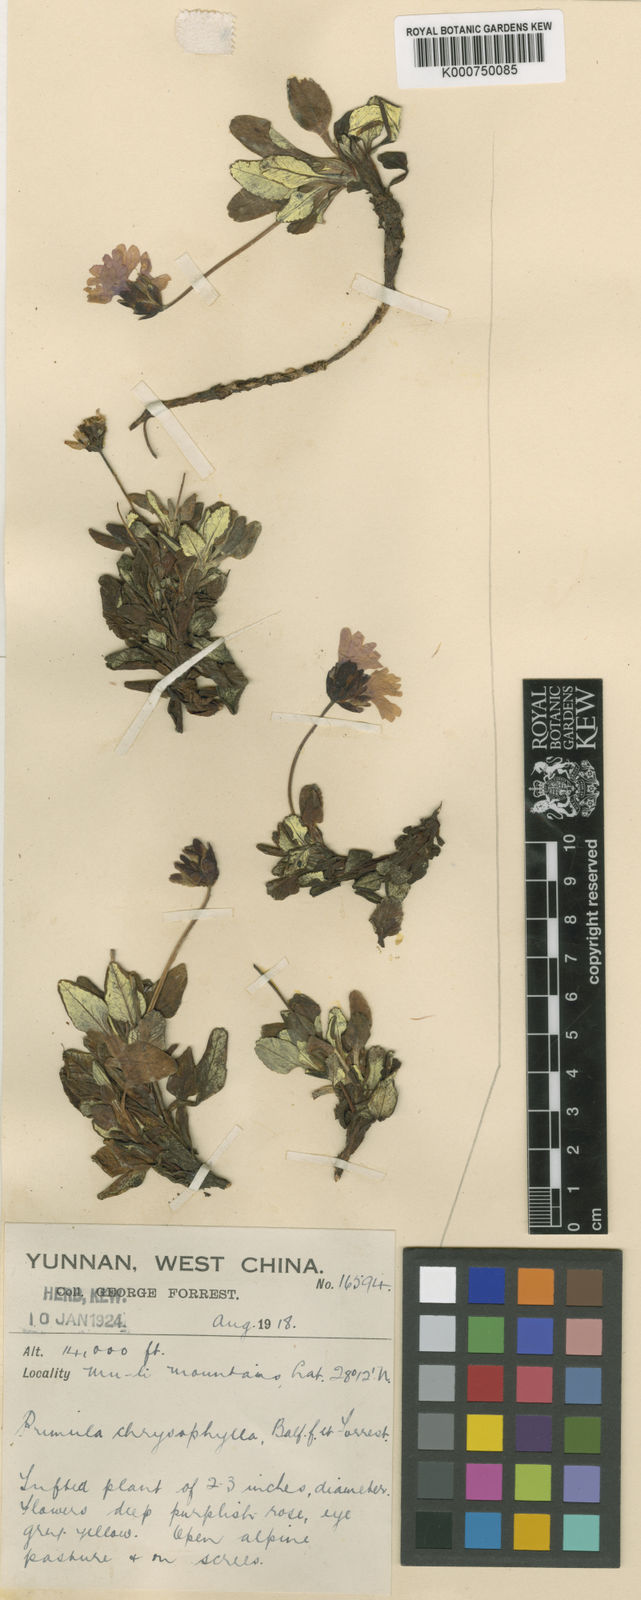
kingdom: Plantae
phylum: Tracheophyta
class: Magnoliopsida
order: Ericales
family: Primulaceae
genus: Primula
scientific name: Primula dryadifolia
